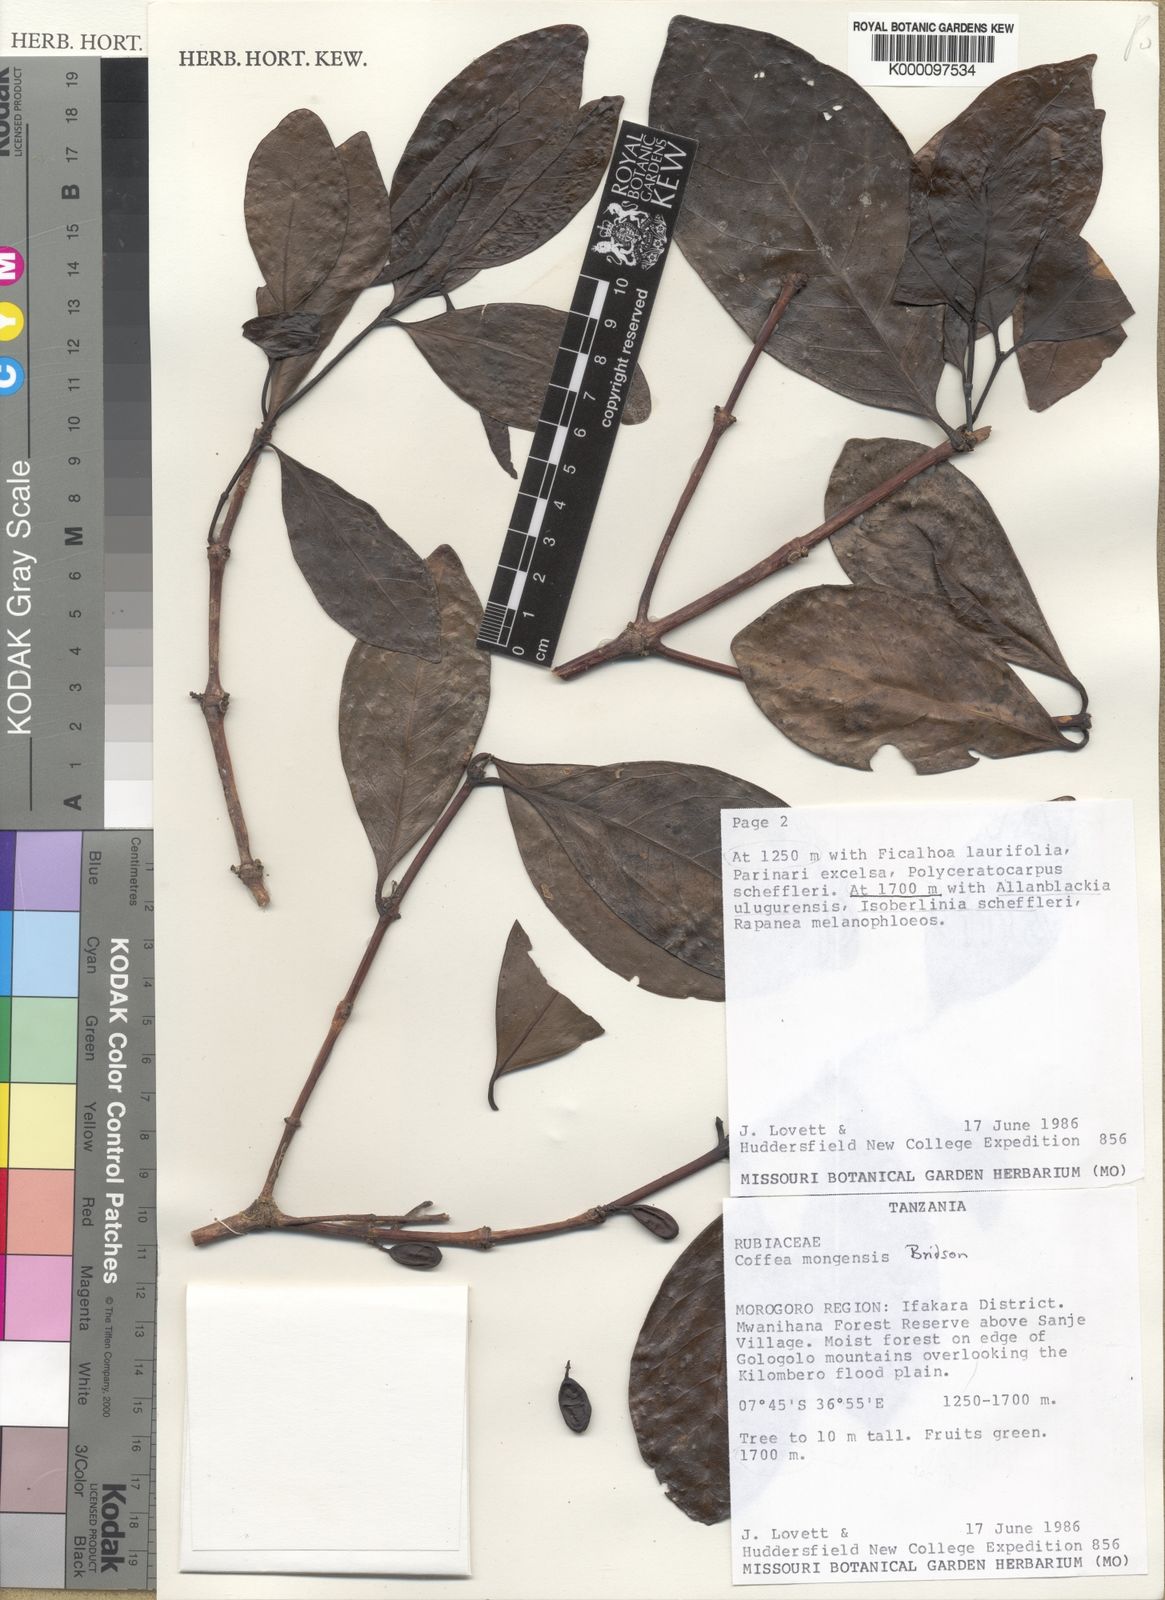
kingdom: Plantae
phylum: Tracheophyta
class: Magnoliopsida
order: Gentianales
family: Rubiaceae
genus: Coffea
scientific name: Coffea mongensis
